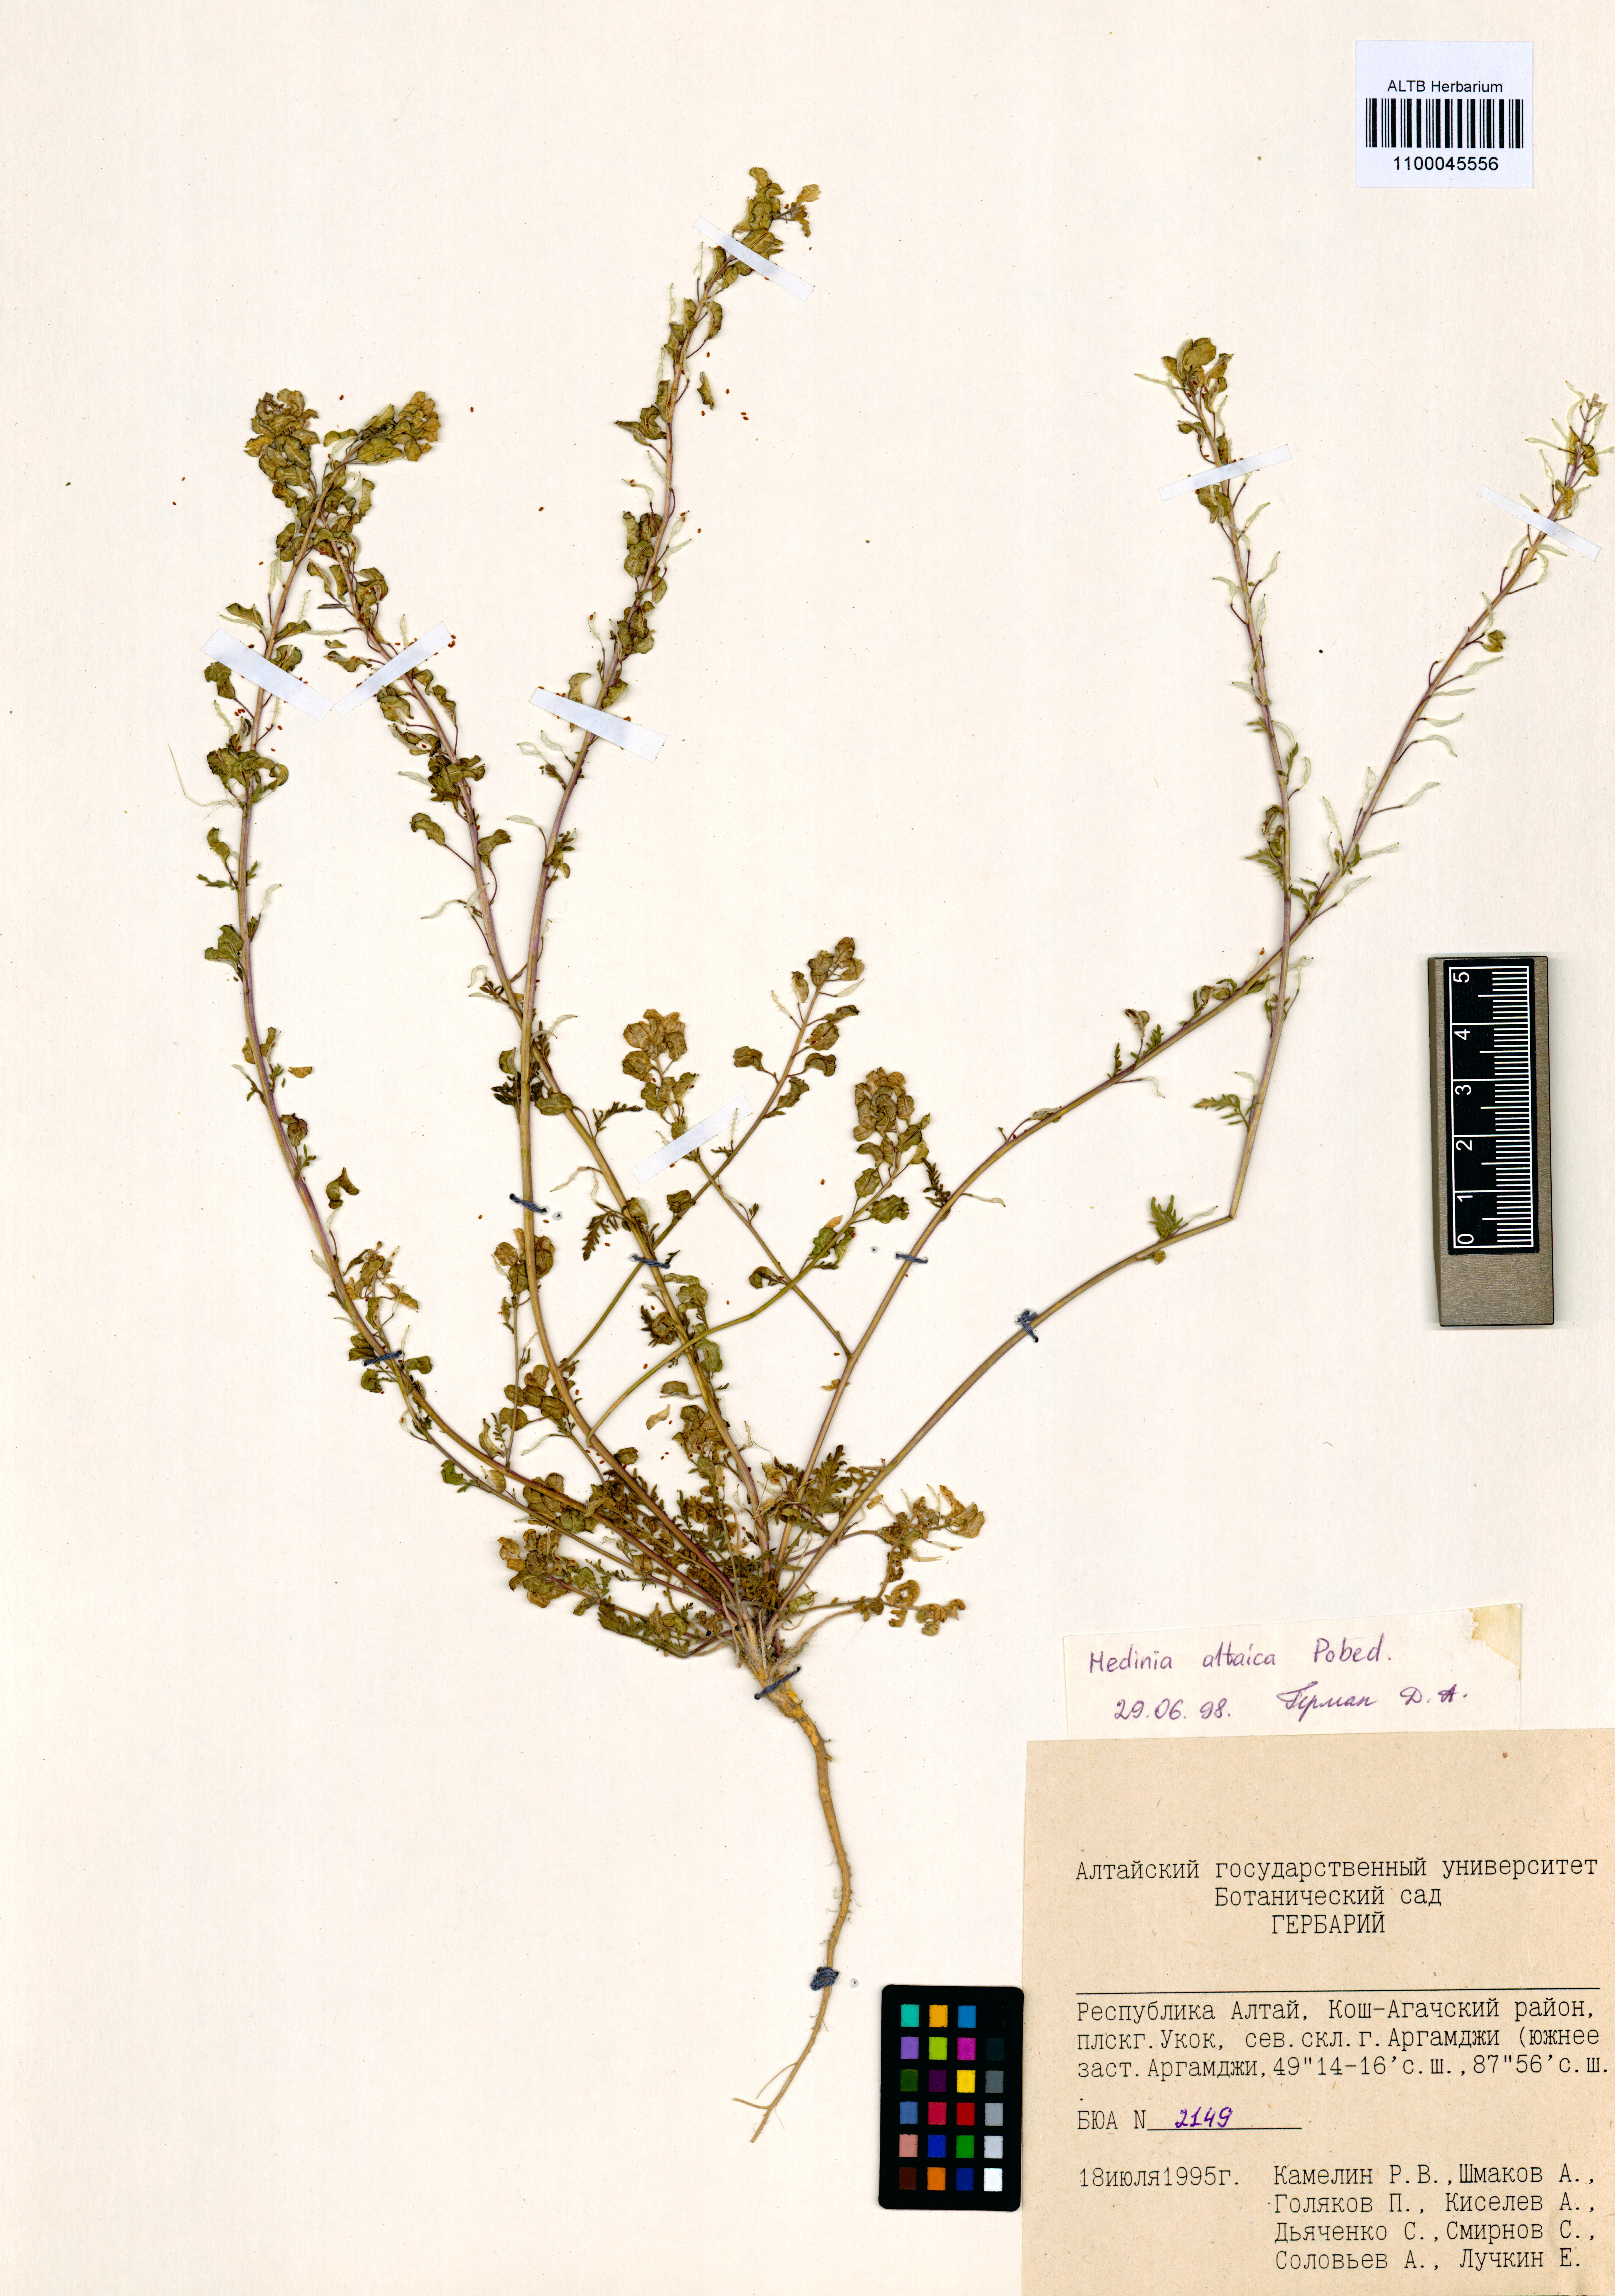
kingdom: Plantae
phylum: Tracheophyta
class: Magnoliopsida
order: Brassicales
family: Brassicaceae
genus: Smelowskia
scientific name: Smelowskia altaica
